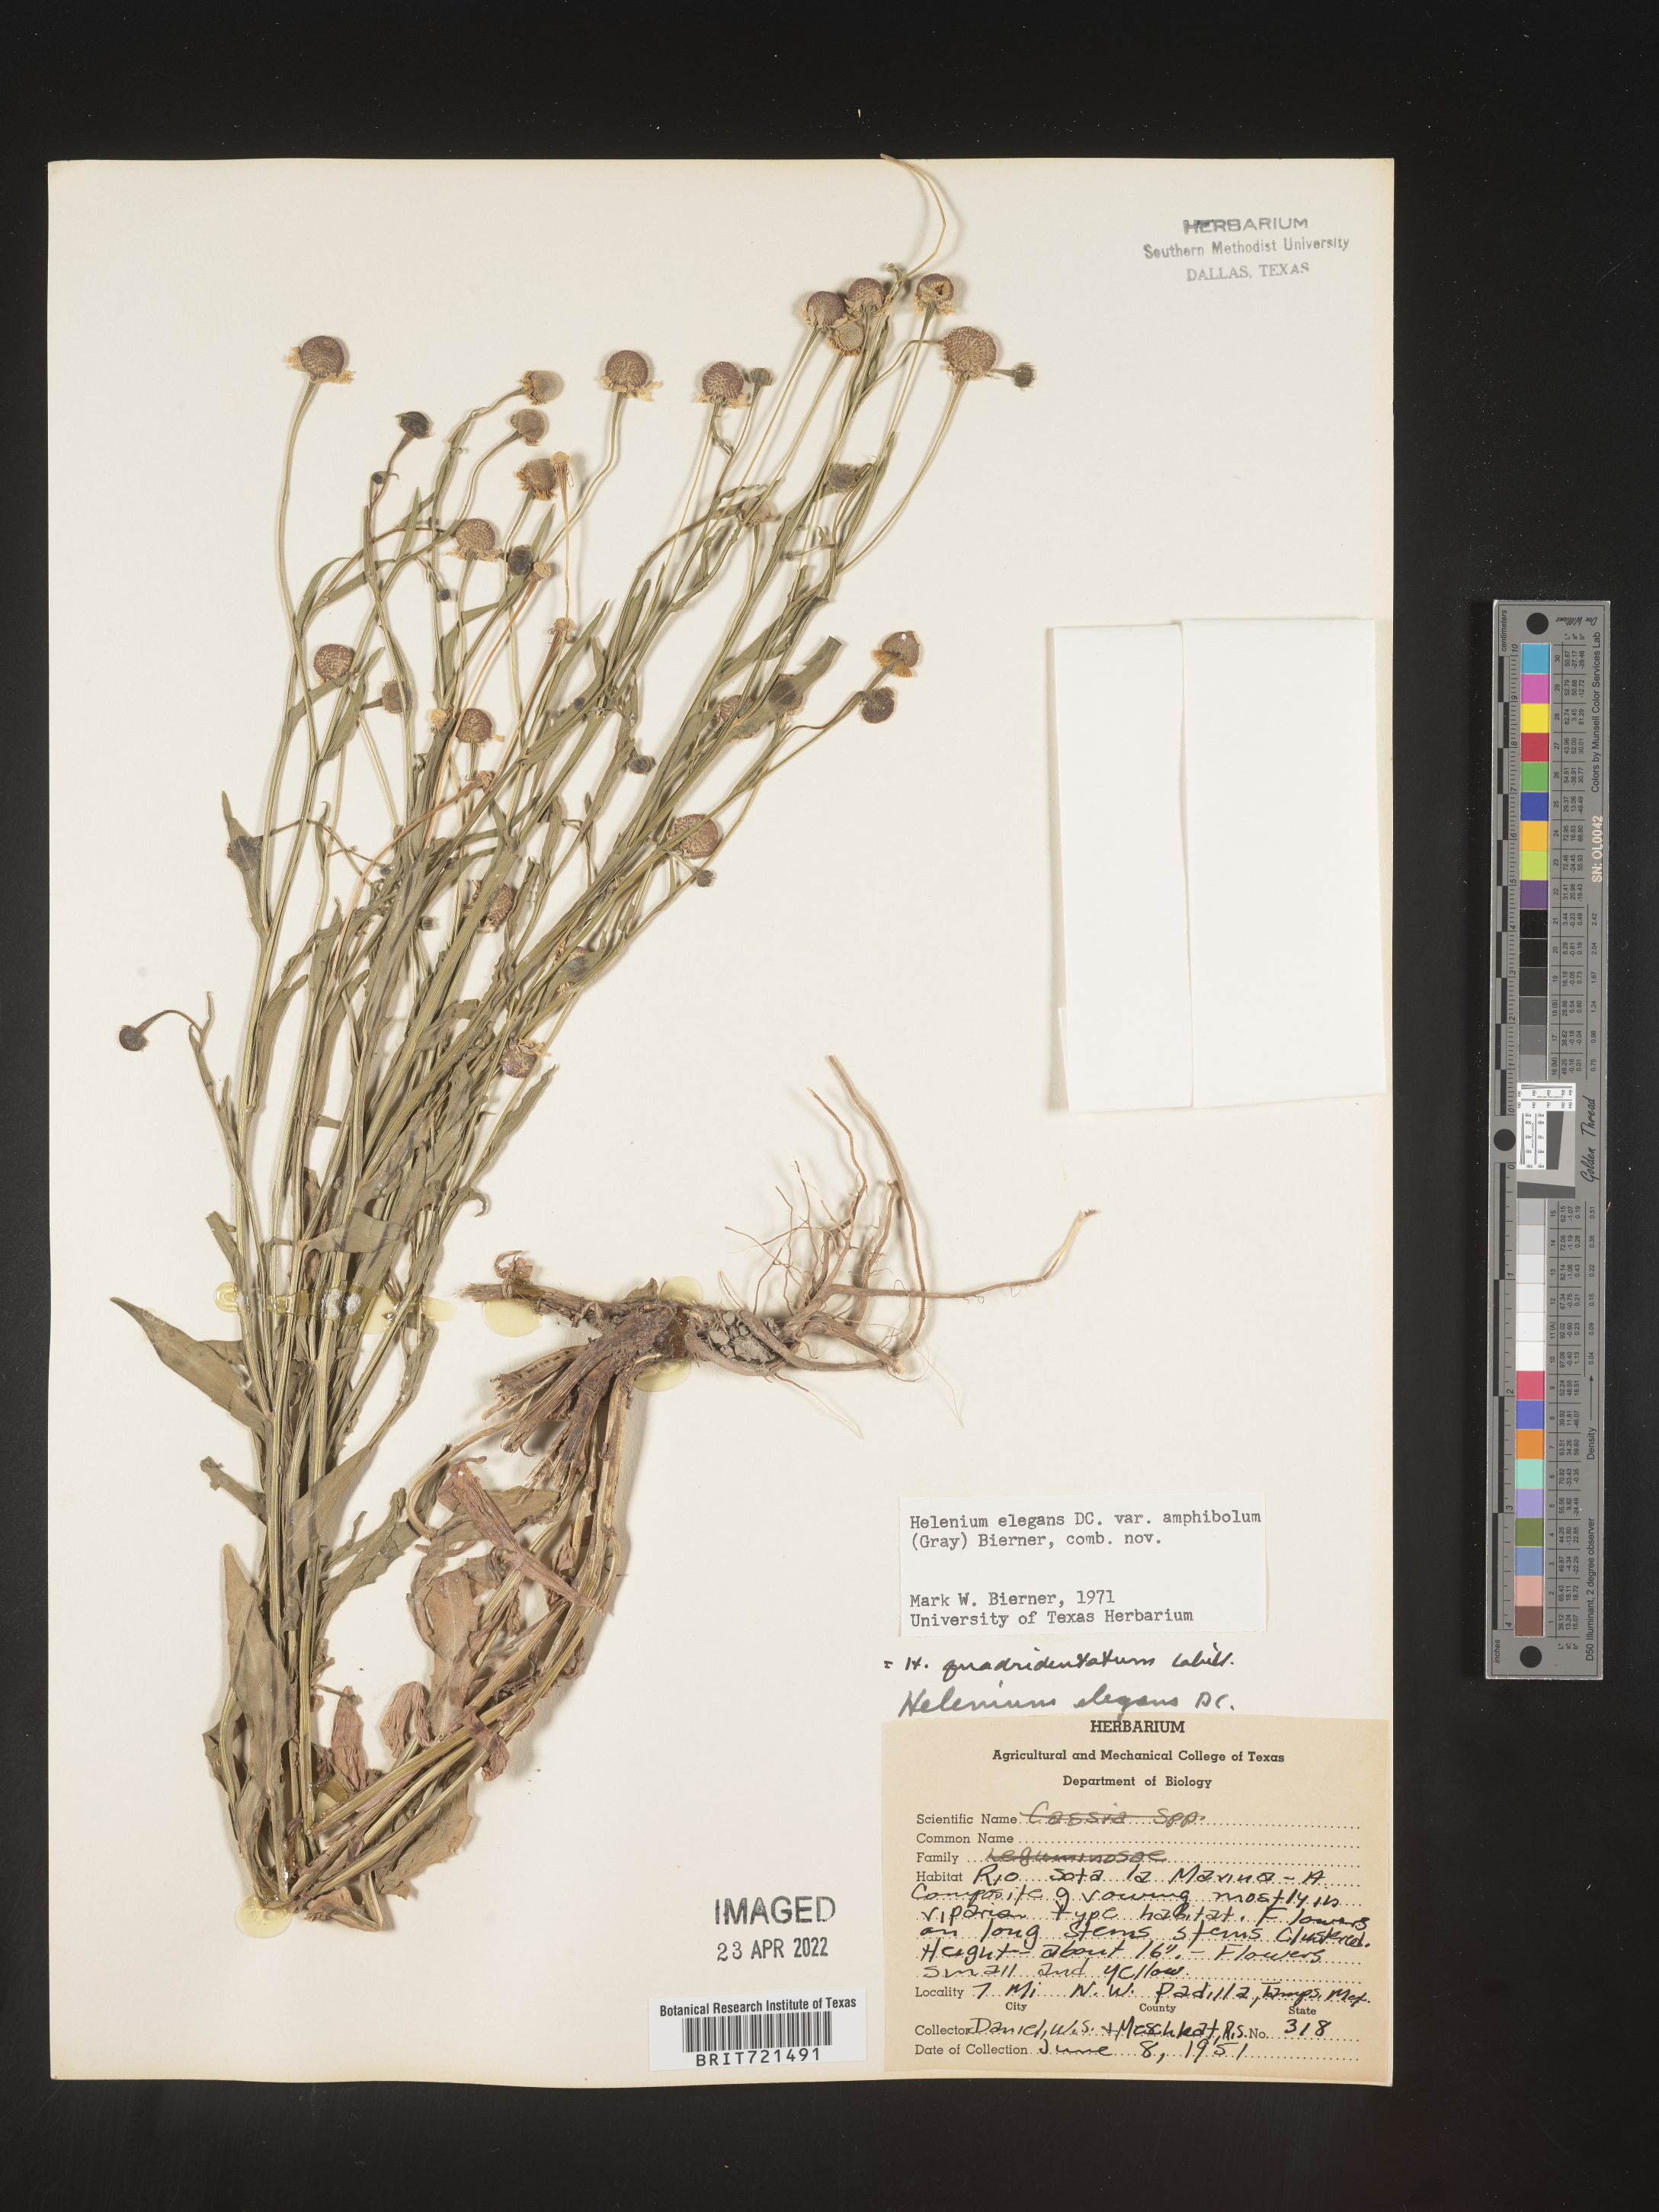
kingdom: Plantae
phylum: Tracheophyta
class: Magnoliopsida
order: Asterales
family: Asteraceae
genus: Helenium
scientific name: Helenium
